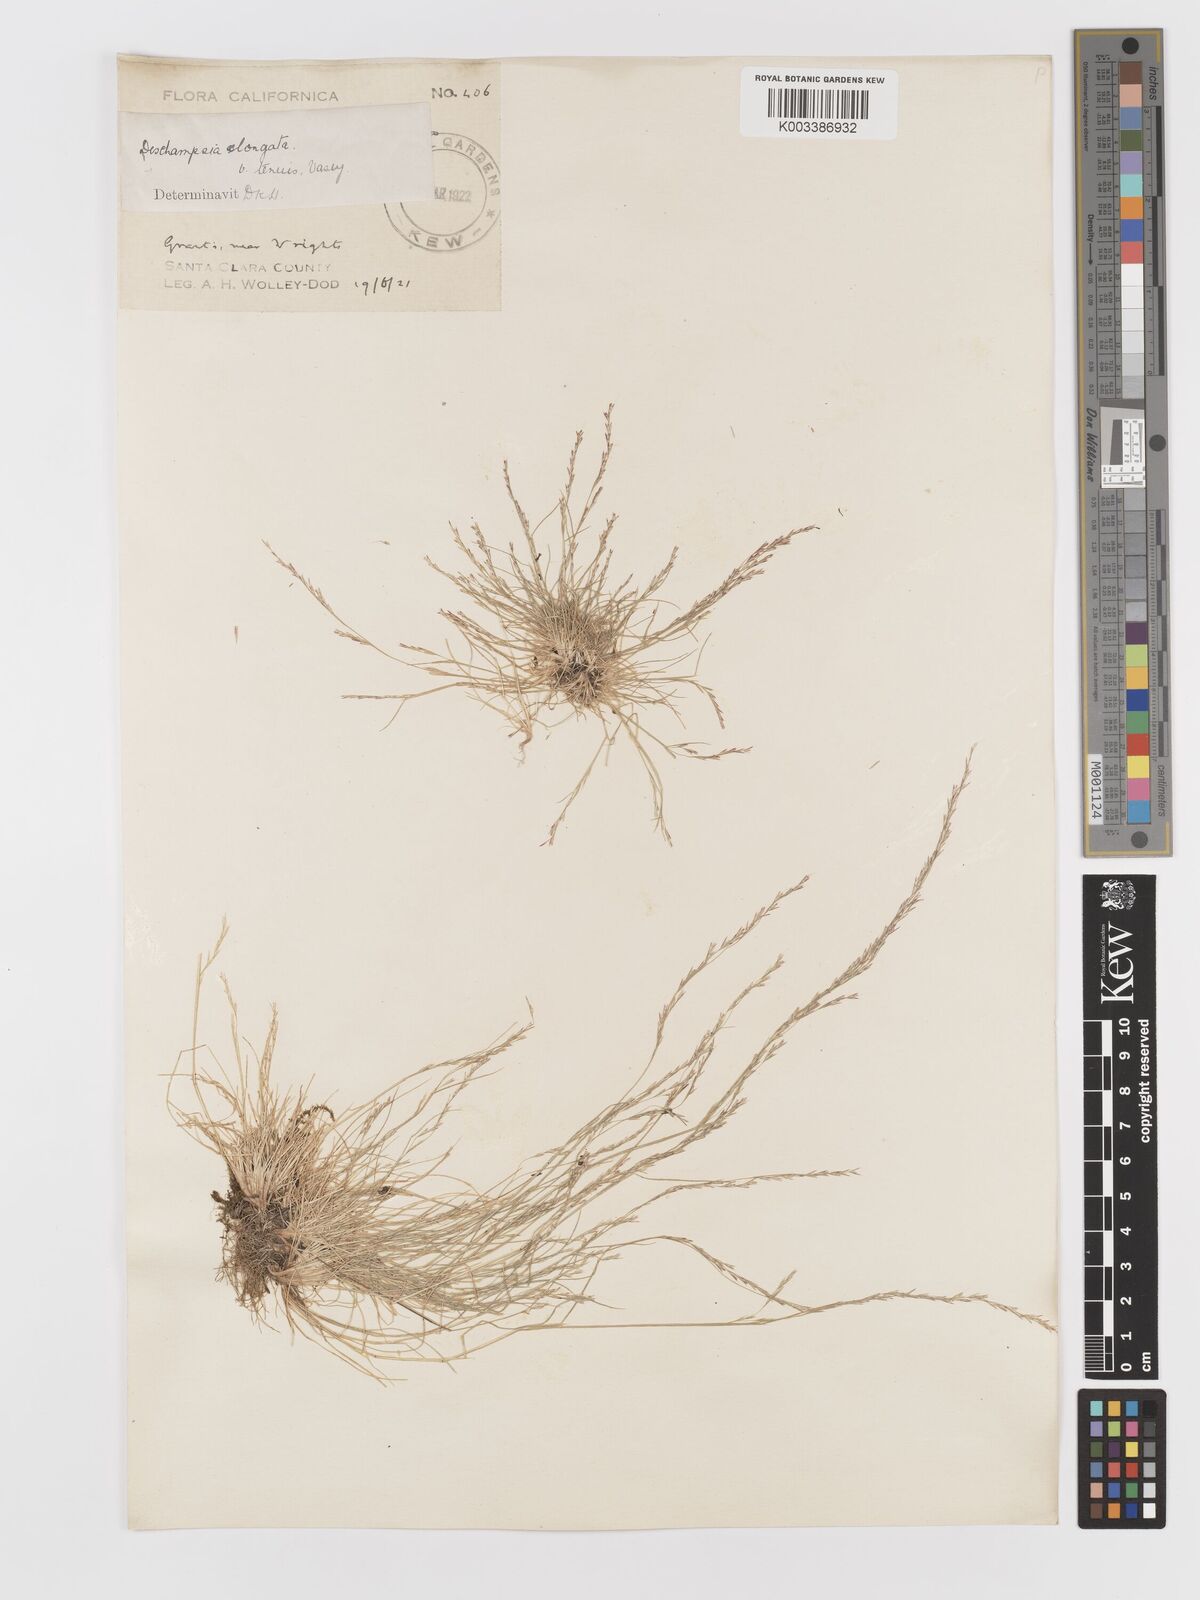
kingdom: Plantae
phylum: Tracheophyta
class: Liliopsida
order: Poales
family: Poaceae
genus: Deschampsia
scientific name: Deschampsia elongata
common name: Slender hairgrass
